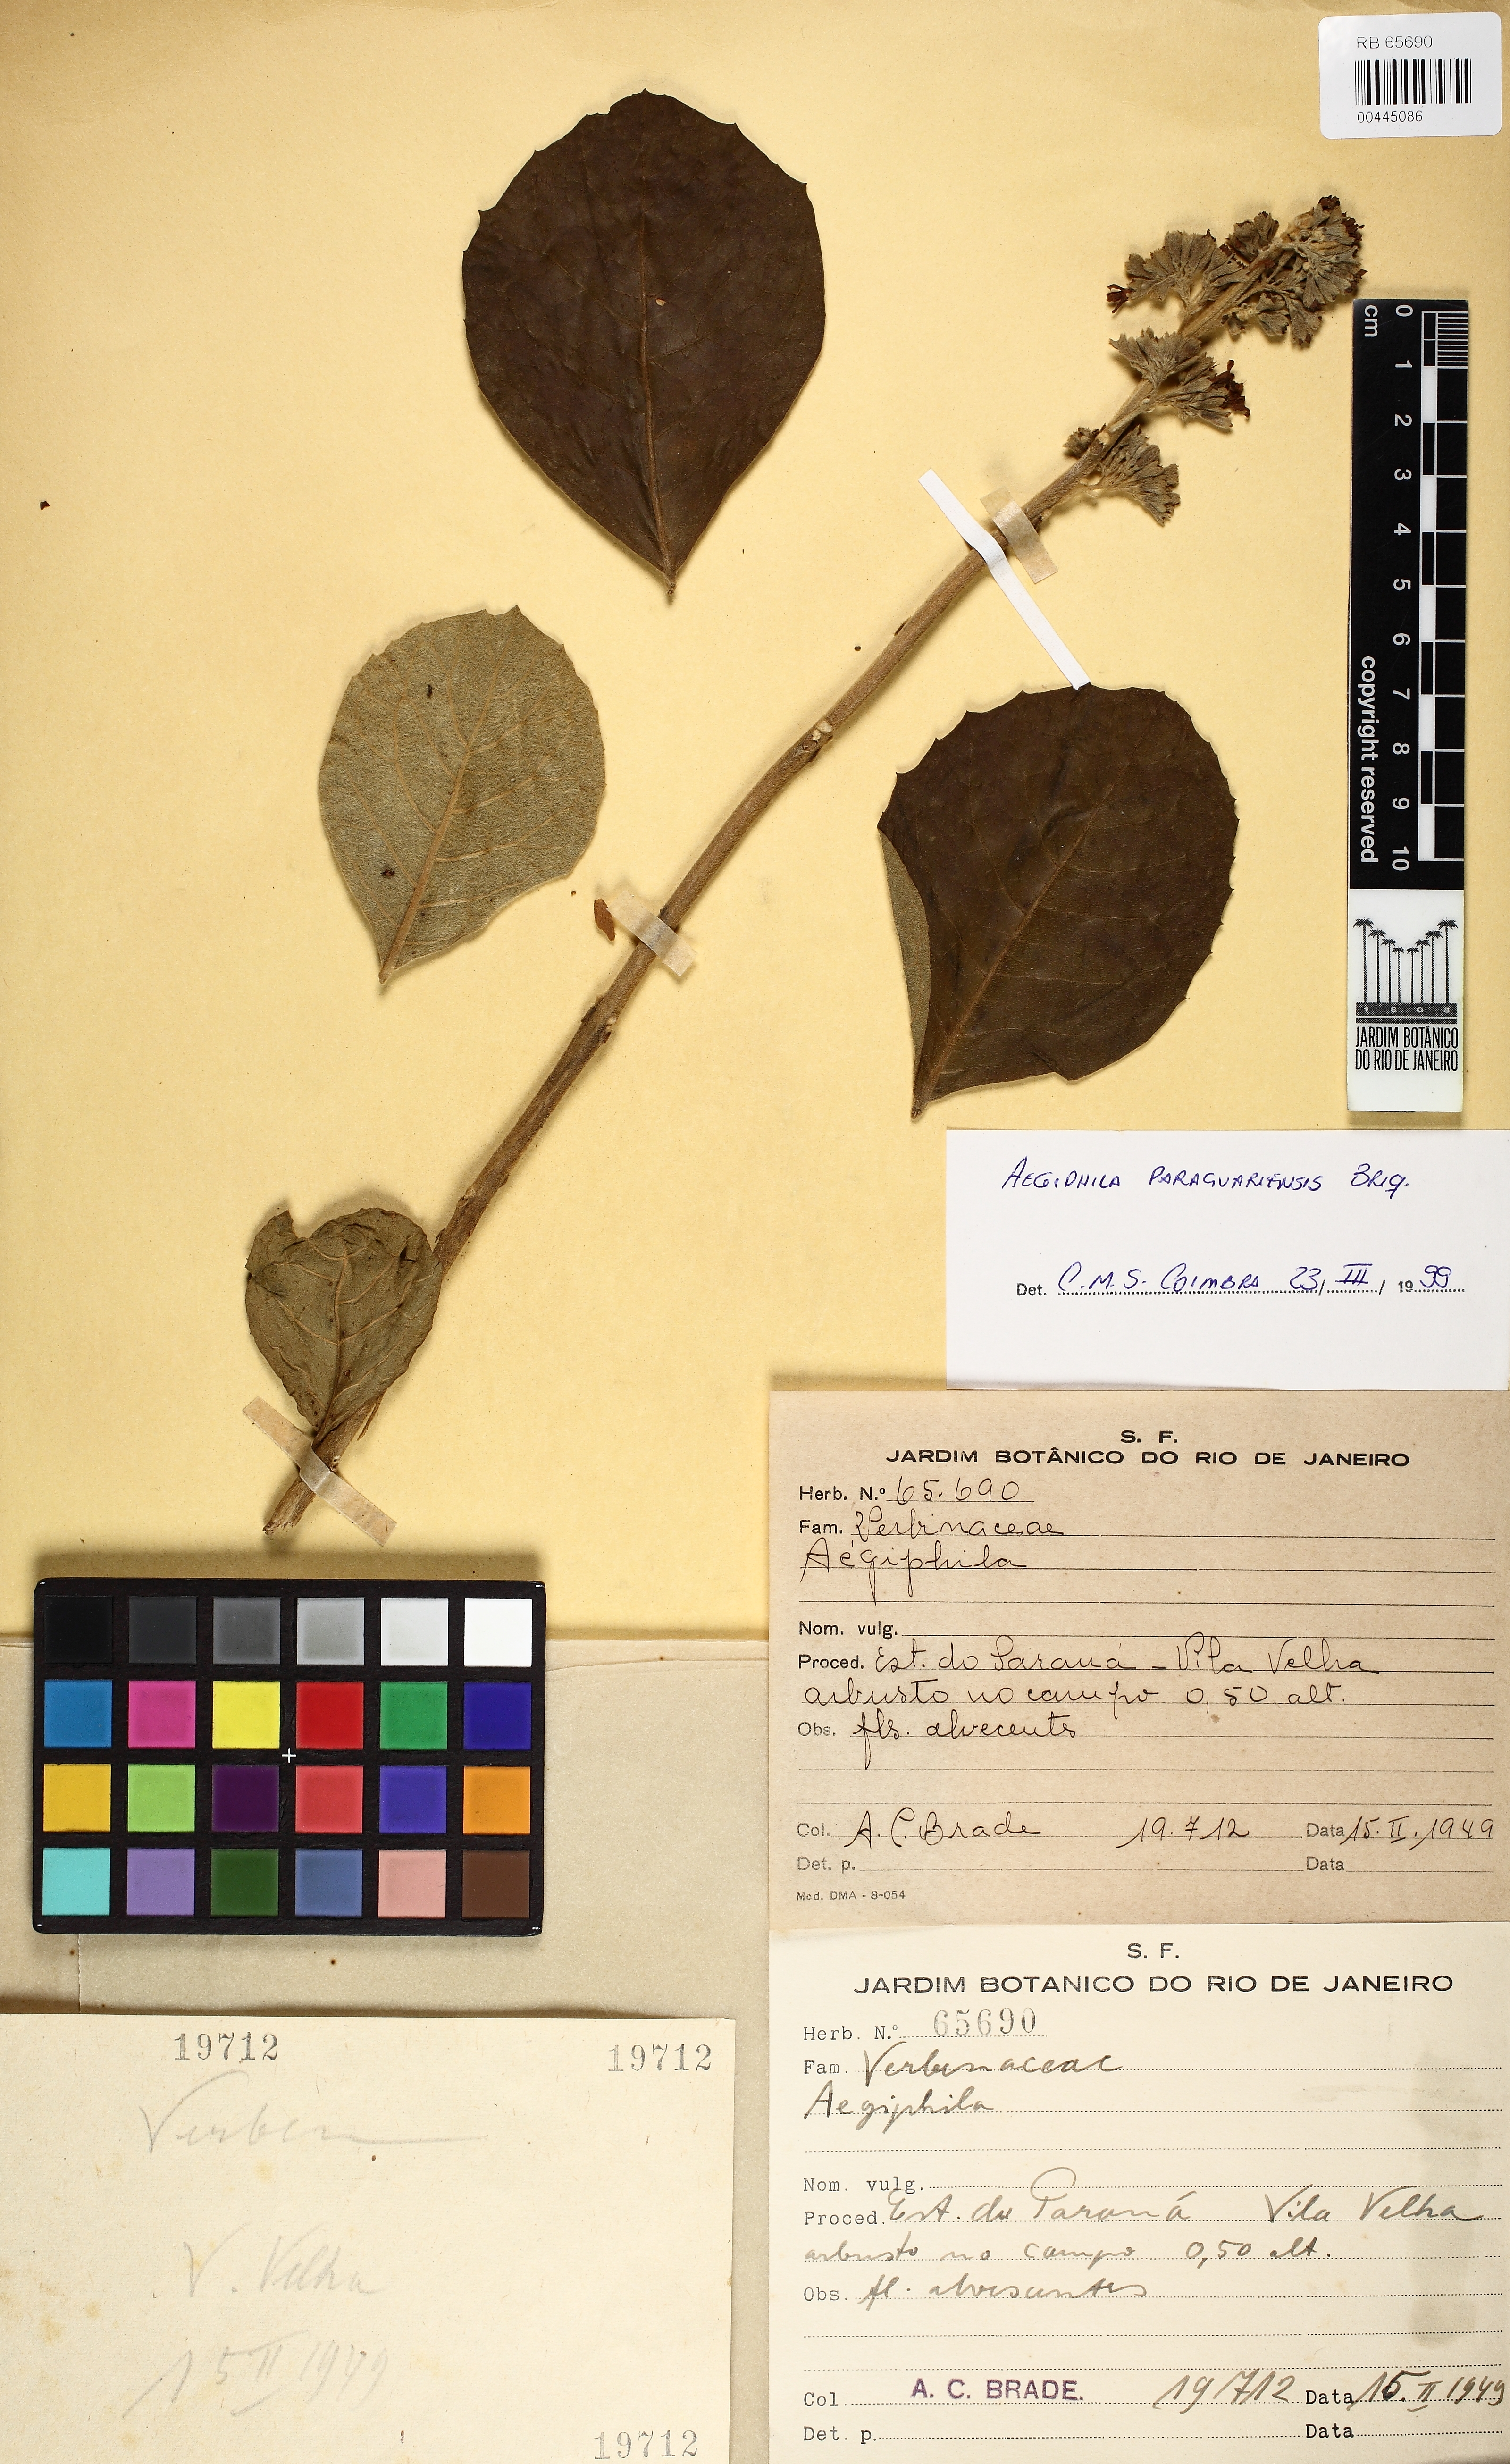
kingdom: Plantae
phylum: Tracheophyta
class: Magnoliopsida
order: Lamiales
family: Lamiaceae
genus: Aegiphila
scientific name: Aegiphila paraguariensis
